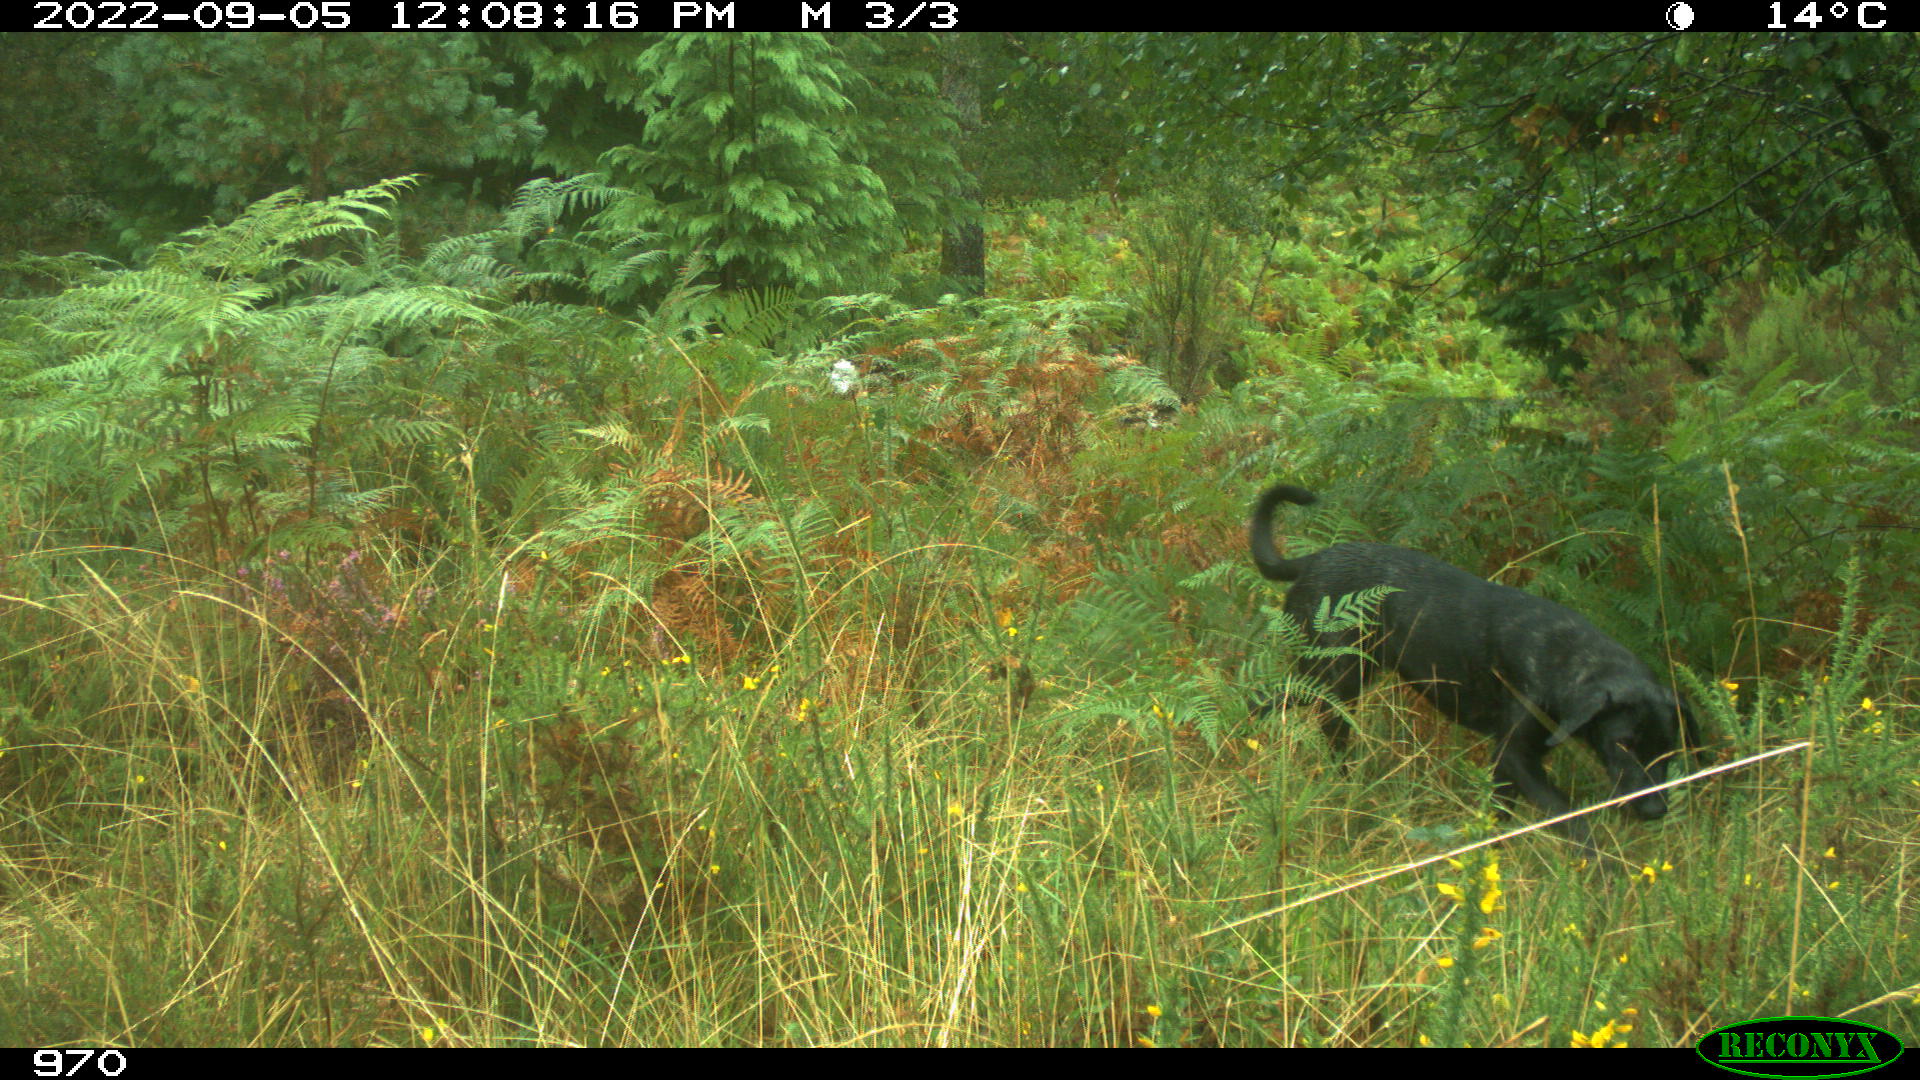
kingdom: Animalia
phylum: Chordata
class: Mammalia
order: Carnivora
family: Canidae
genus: Canis
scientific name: Canis lupus
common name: Gray wolf
